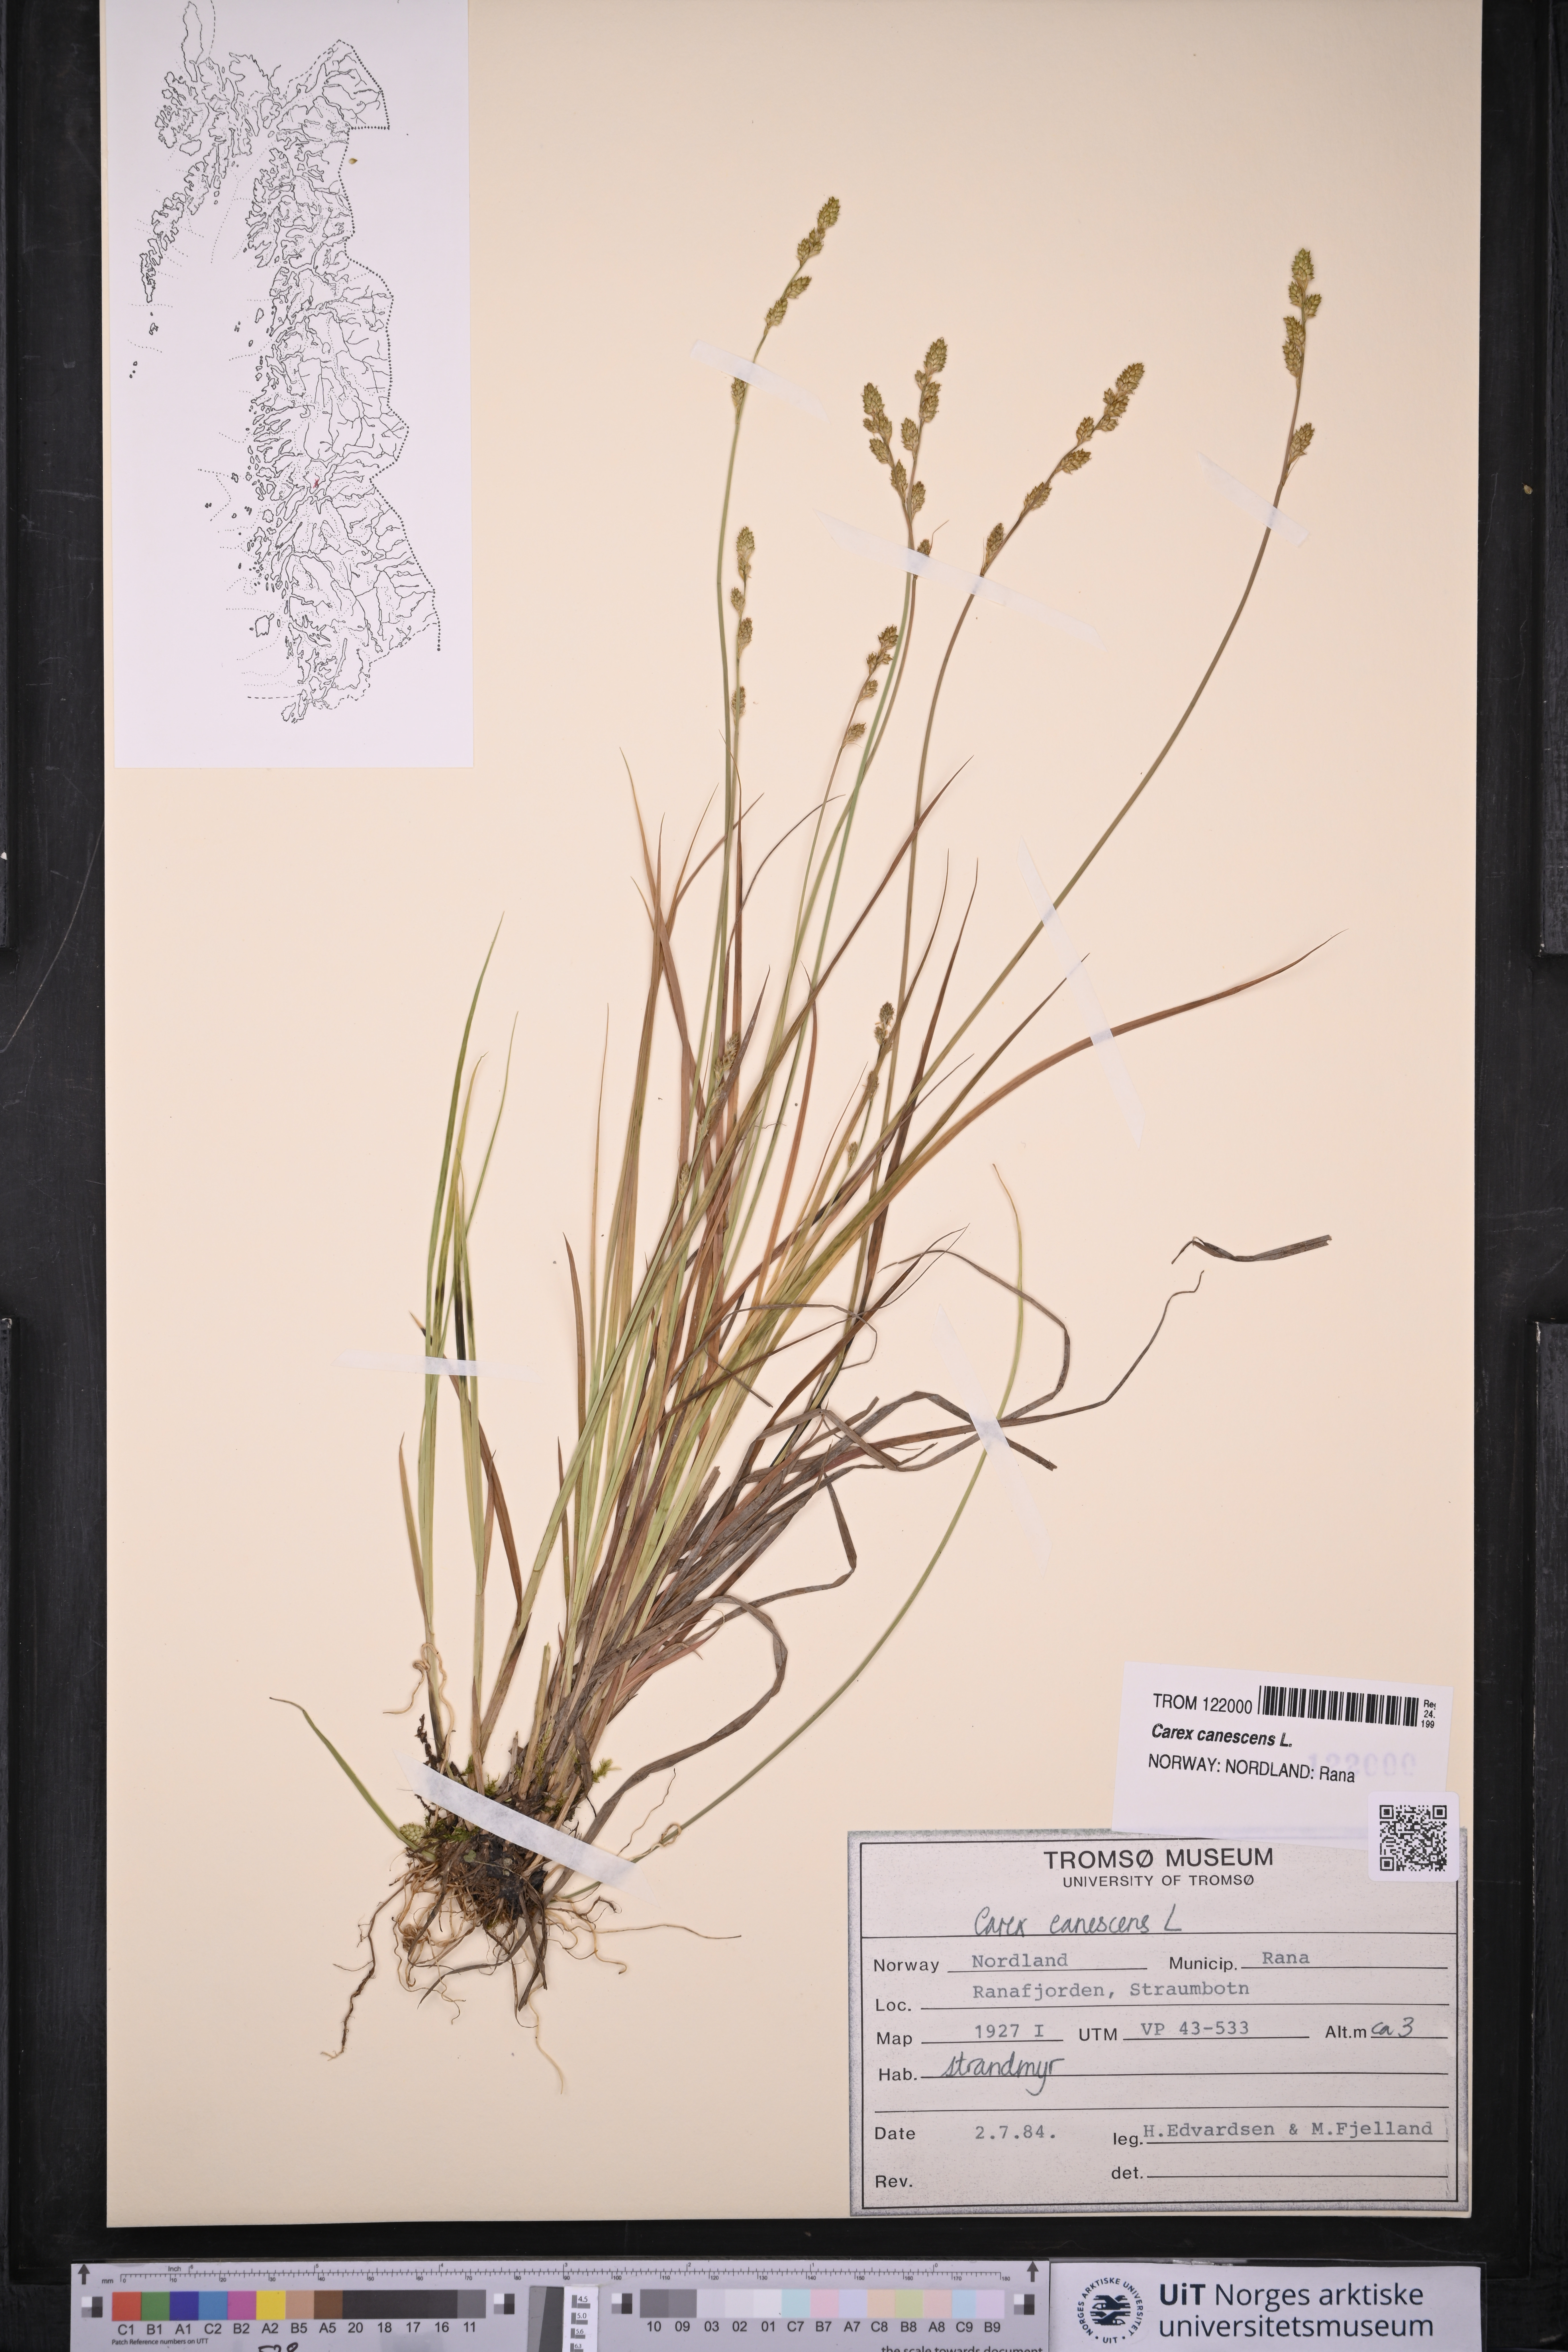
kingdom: Plantae
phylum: Tracheophyta
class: Liliopsida
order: Poales
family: Cyperaceae
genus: Carex
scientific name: Carex canescens
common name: White sedge
